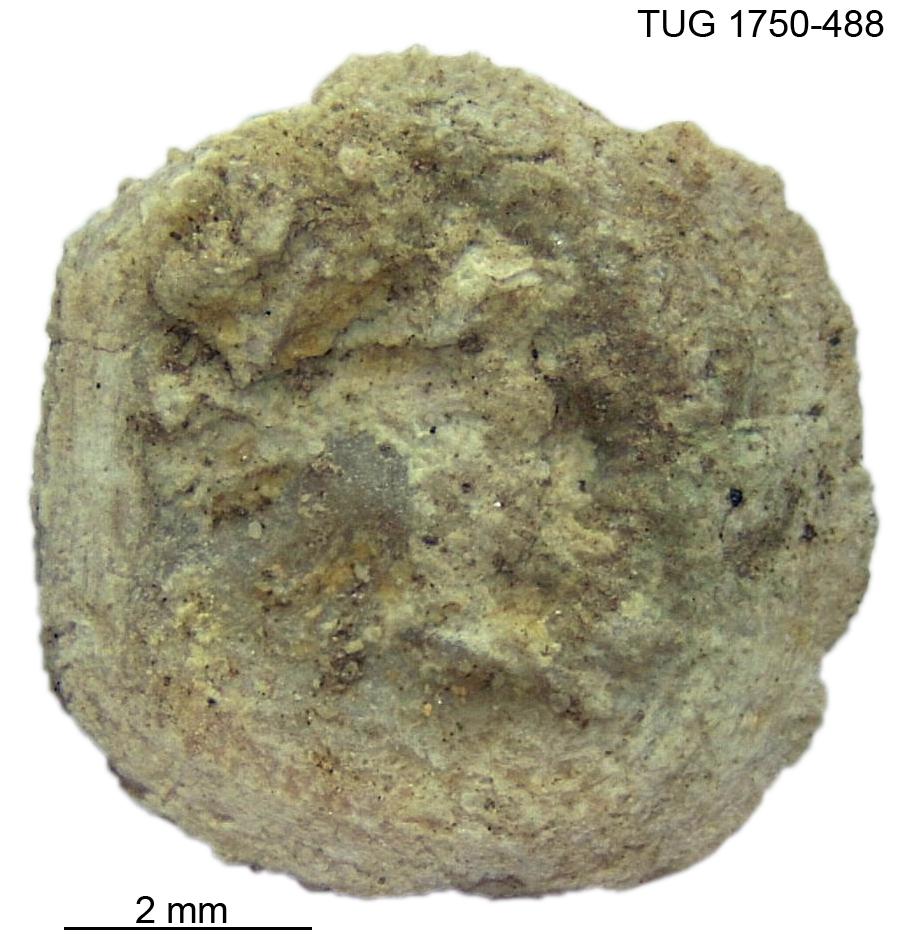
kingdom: Animalia
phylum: Brachiopoda
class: Craniata
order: Craniida
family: Craniidae
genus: Orthisocrania
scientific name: Orthisocrania
